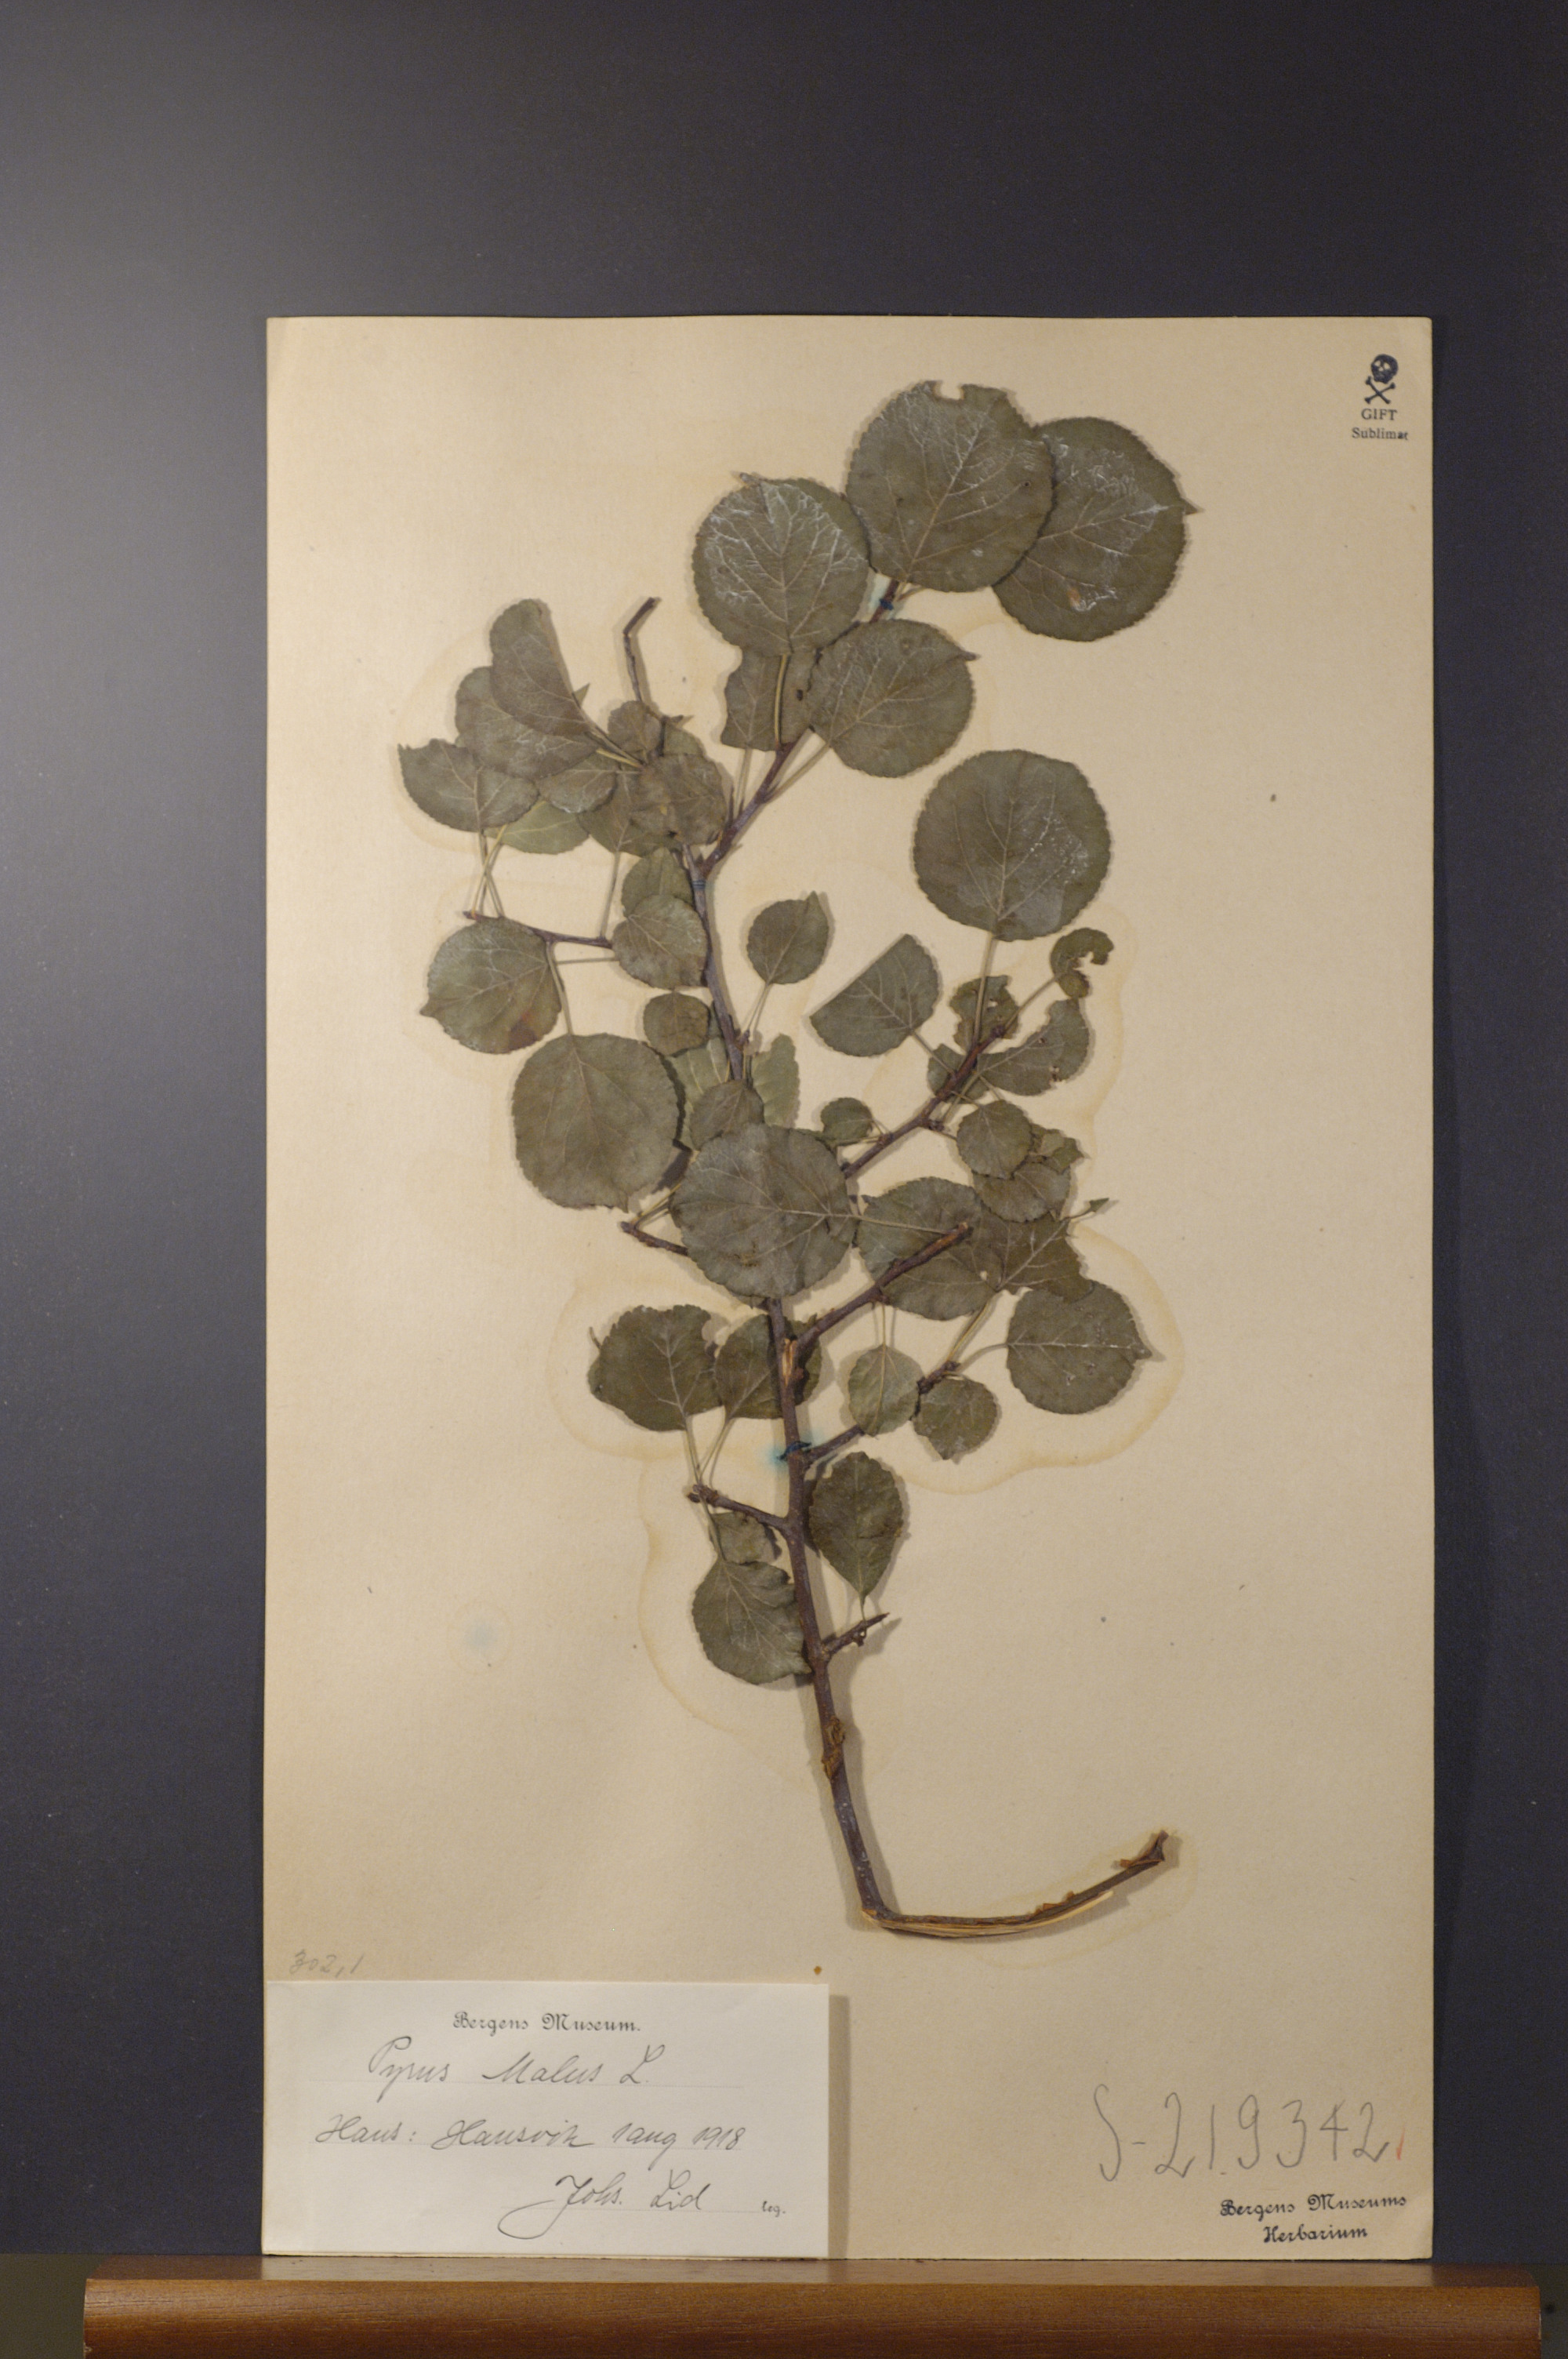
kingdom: Plantae
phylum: Tracheophyta
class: Magnoliopsida
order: Rosales
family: Rosaceae
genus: Malus
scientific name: Malus domestica
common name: Apple
